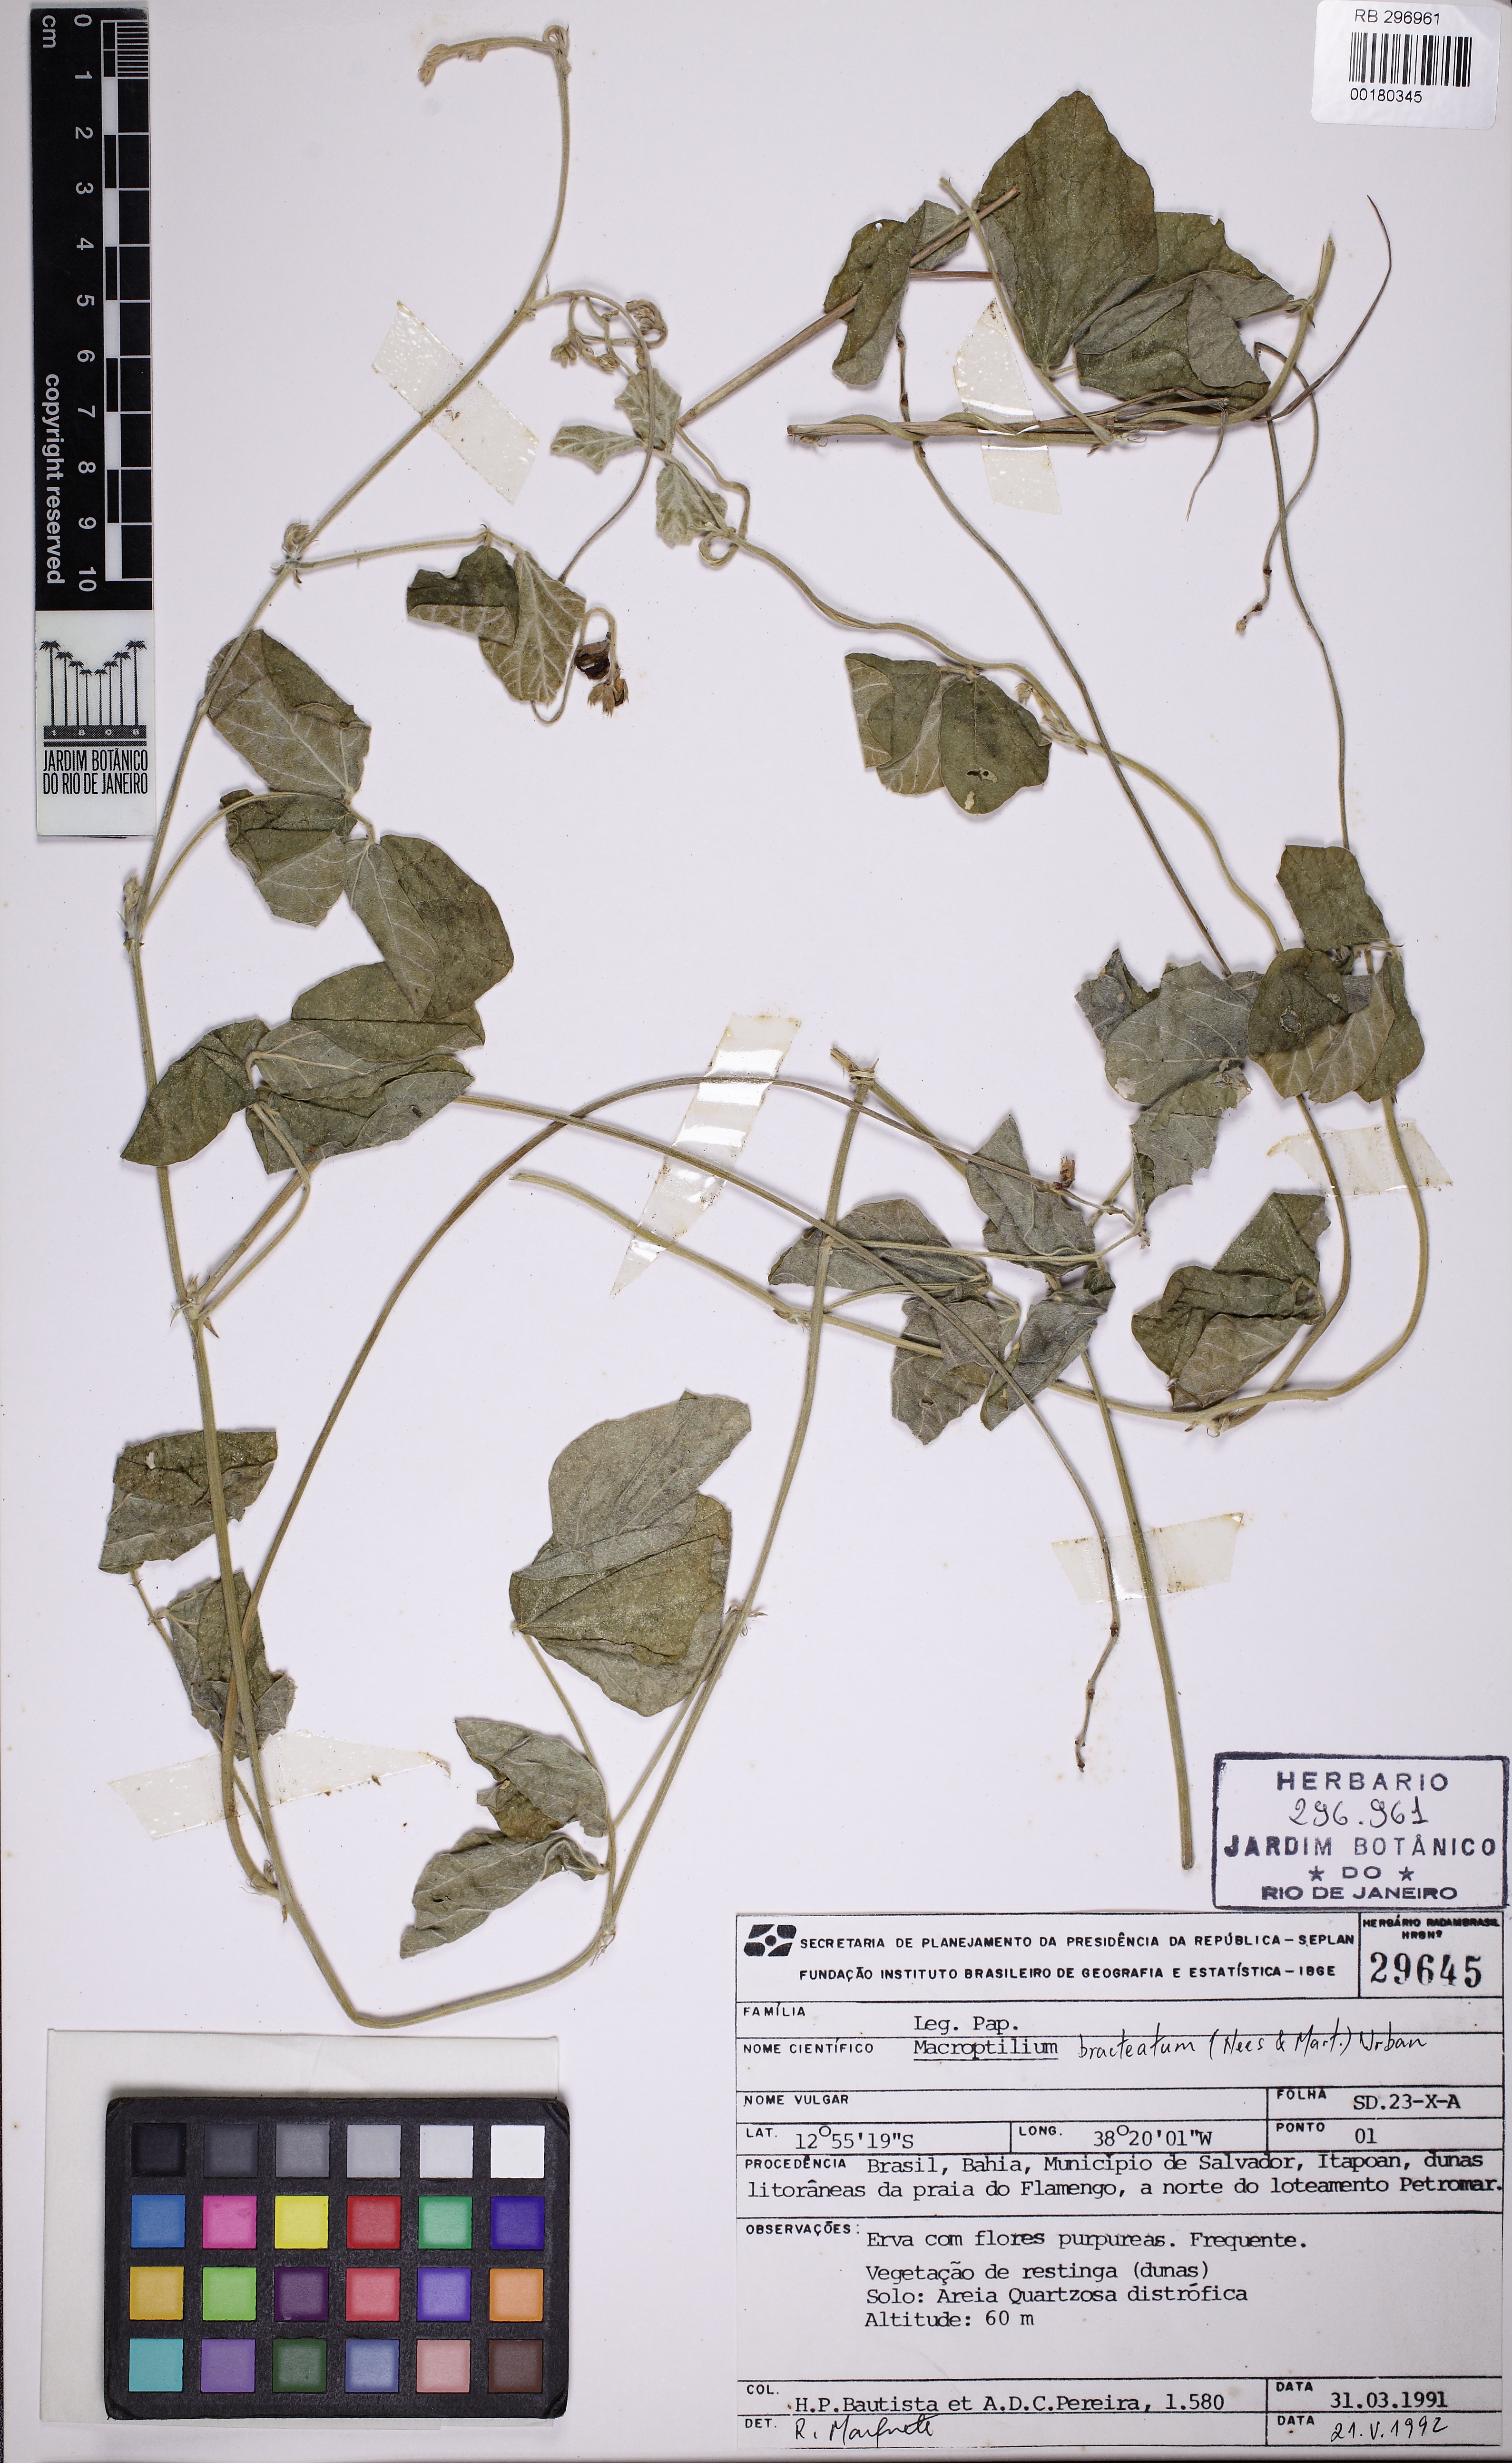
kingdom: Plantae
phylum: Tracheophyta
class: Magnoliopsida
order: Fabales
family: Fabaceae
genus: Macroptilium
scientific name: Macroptilium atropurpureum
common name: Purple bushbean
